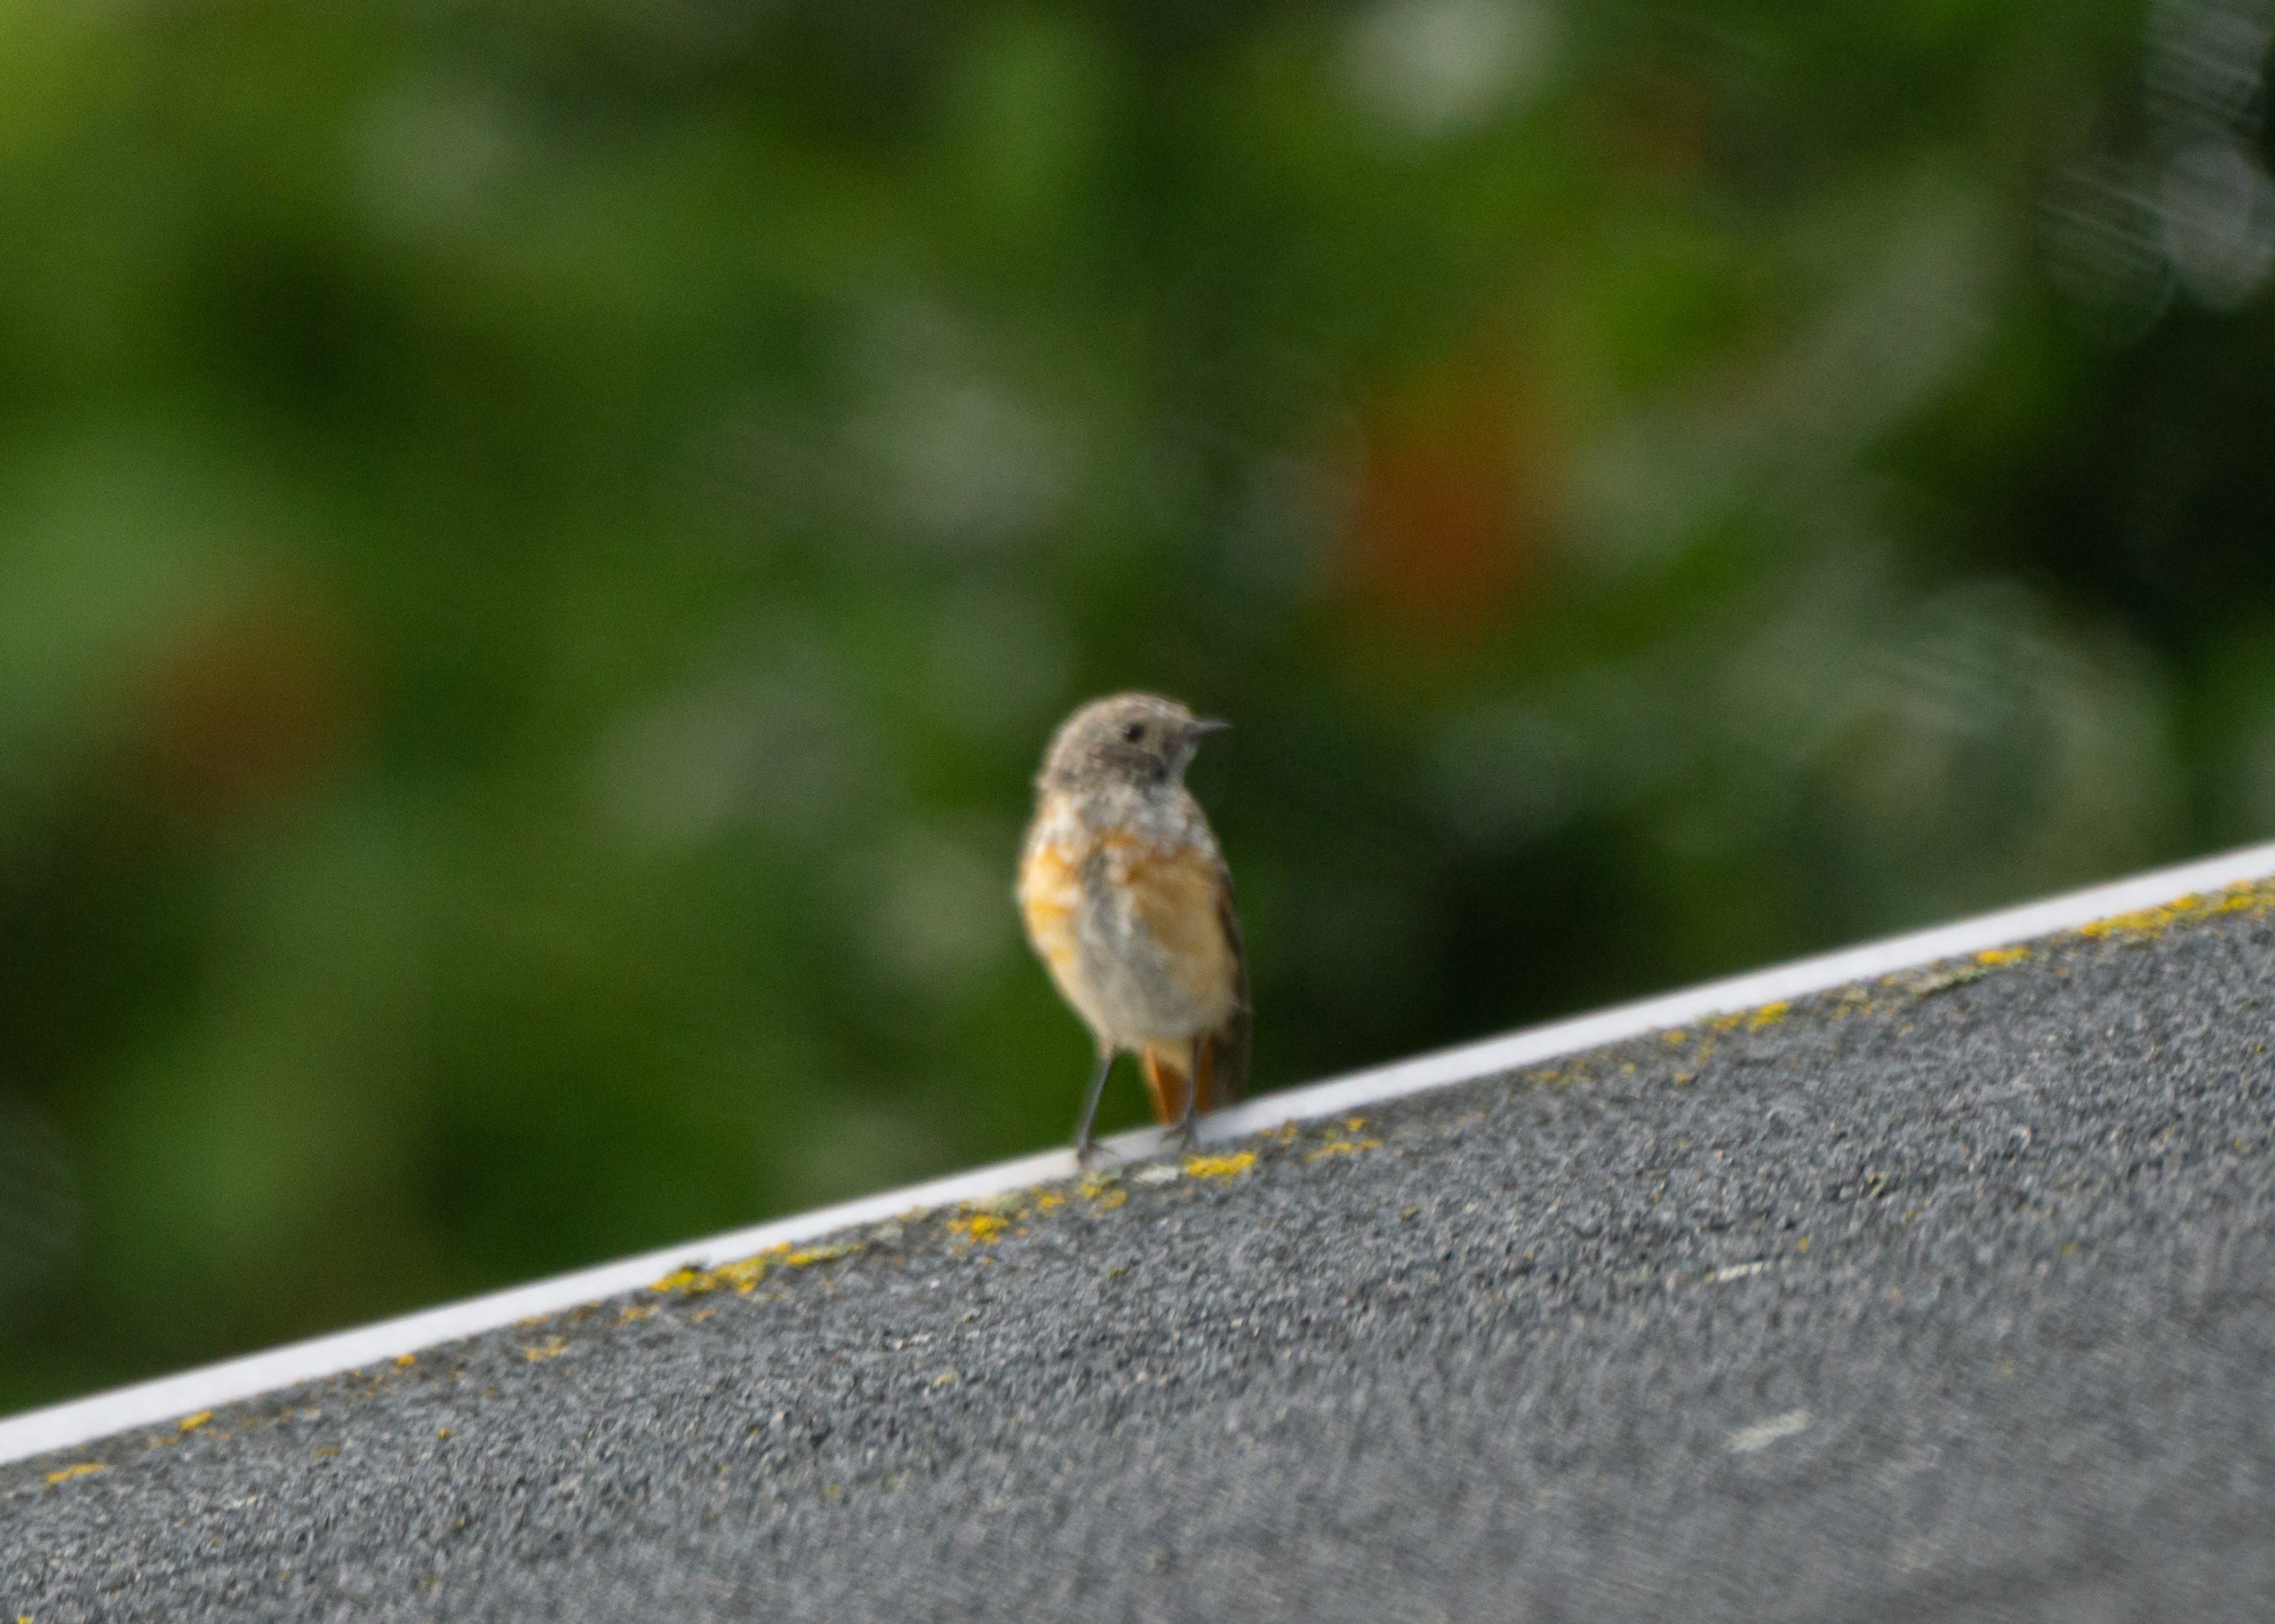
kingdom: Animalia
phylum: Chordata
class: Aves
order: Passeriformes
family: Muscicapidae
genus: Phoenicurus
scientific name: Phoenicurus phoenicurus
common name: Rødstjert
